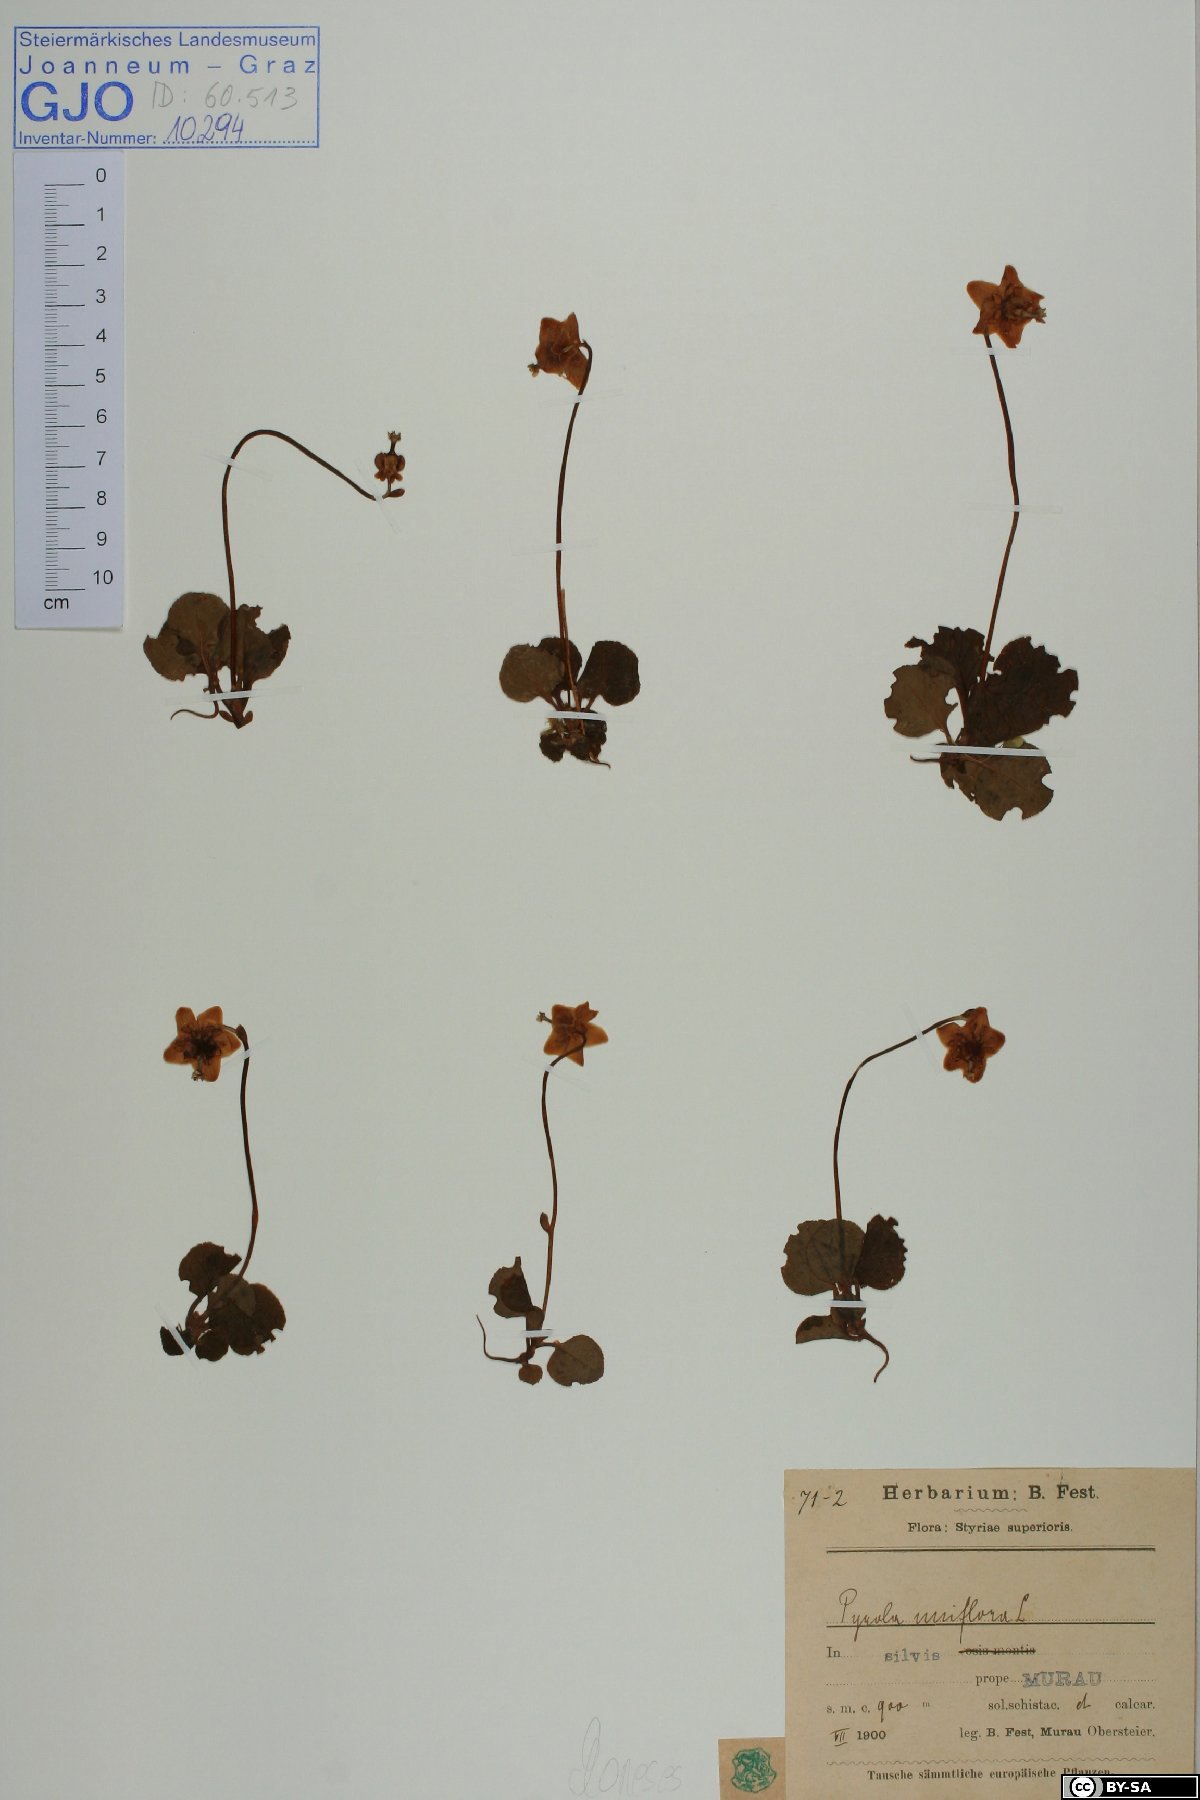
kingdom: Plantae
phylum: Tracheophyta
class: Magnoliopsida
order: Ericales
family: Ericaceae
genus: Moneses
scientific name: Moneses uniflora
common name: One-flowered wintergreen
